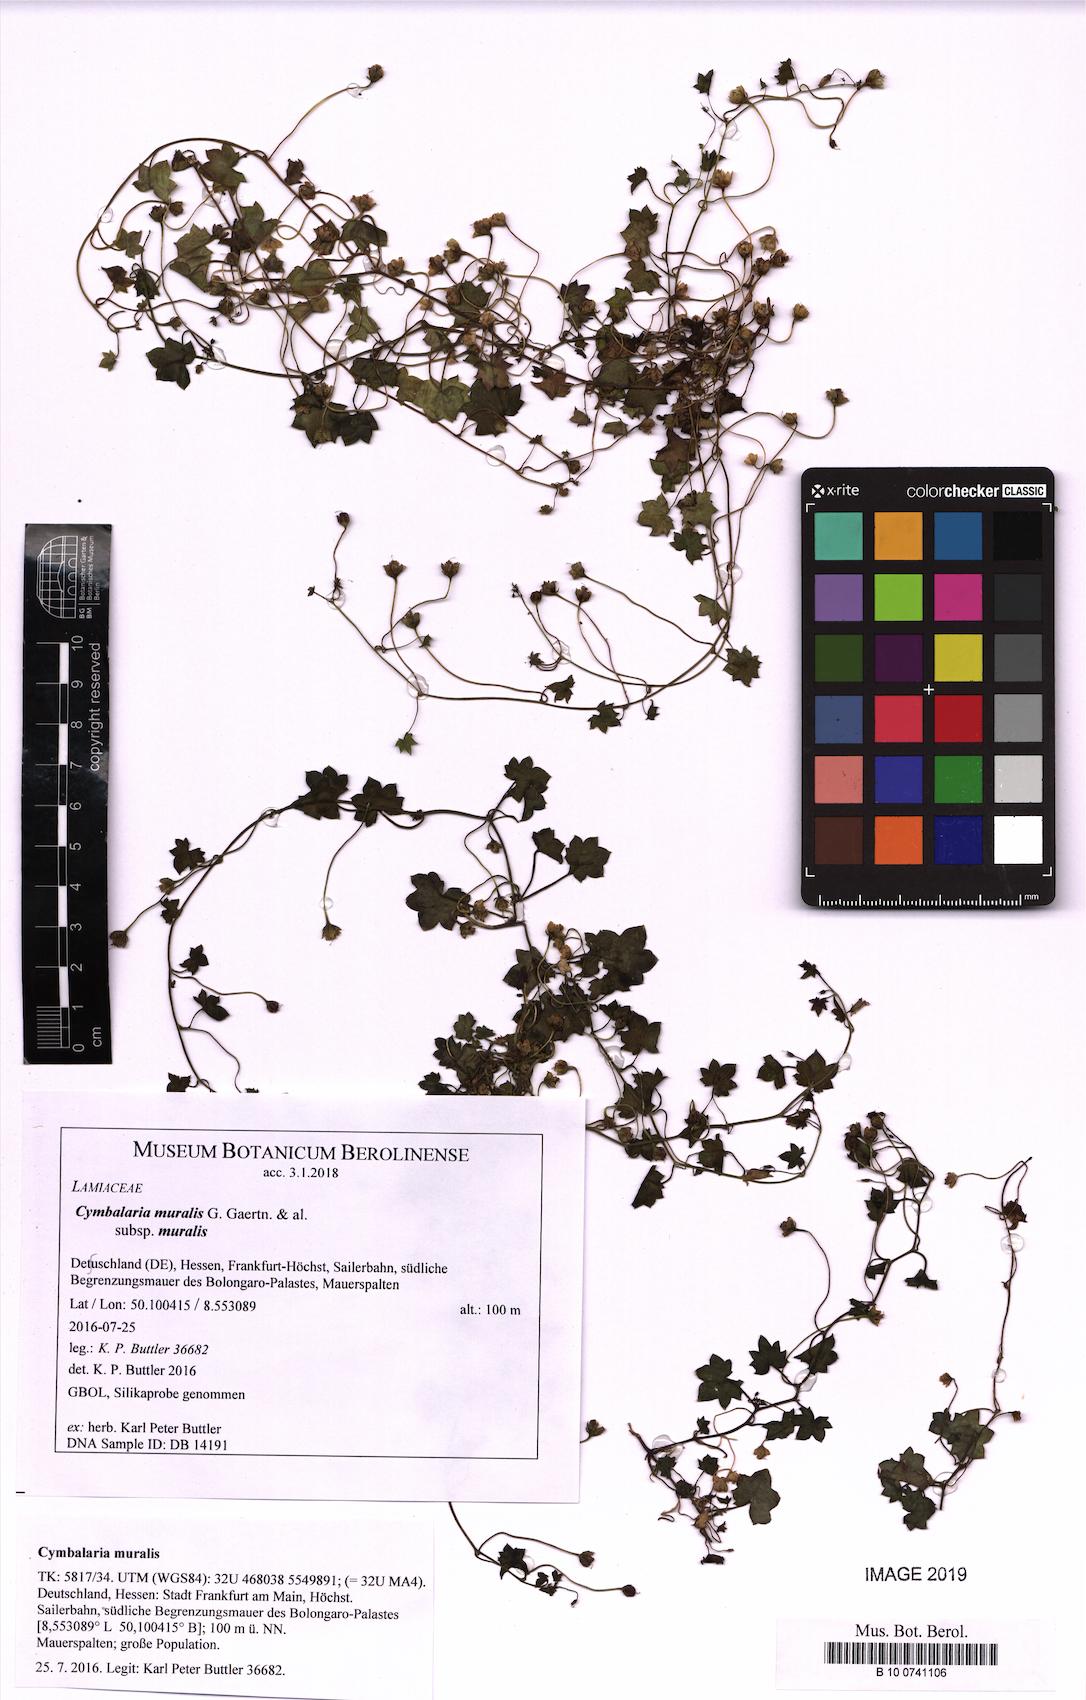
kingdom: Plantae
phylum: Tracheophyta
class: Magnoliopsida
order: Lamiales
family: Plantaginaceae
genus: Cymbalaria
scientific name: Cymbalaria muralis
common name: Ivy-leaved toadflax
